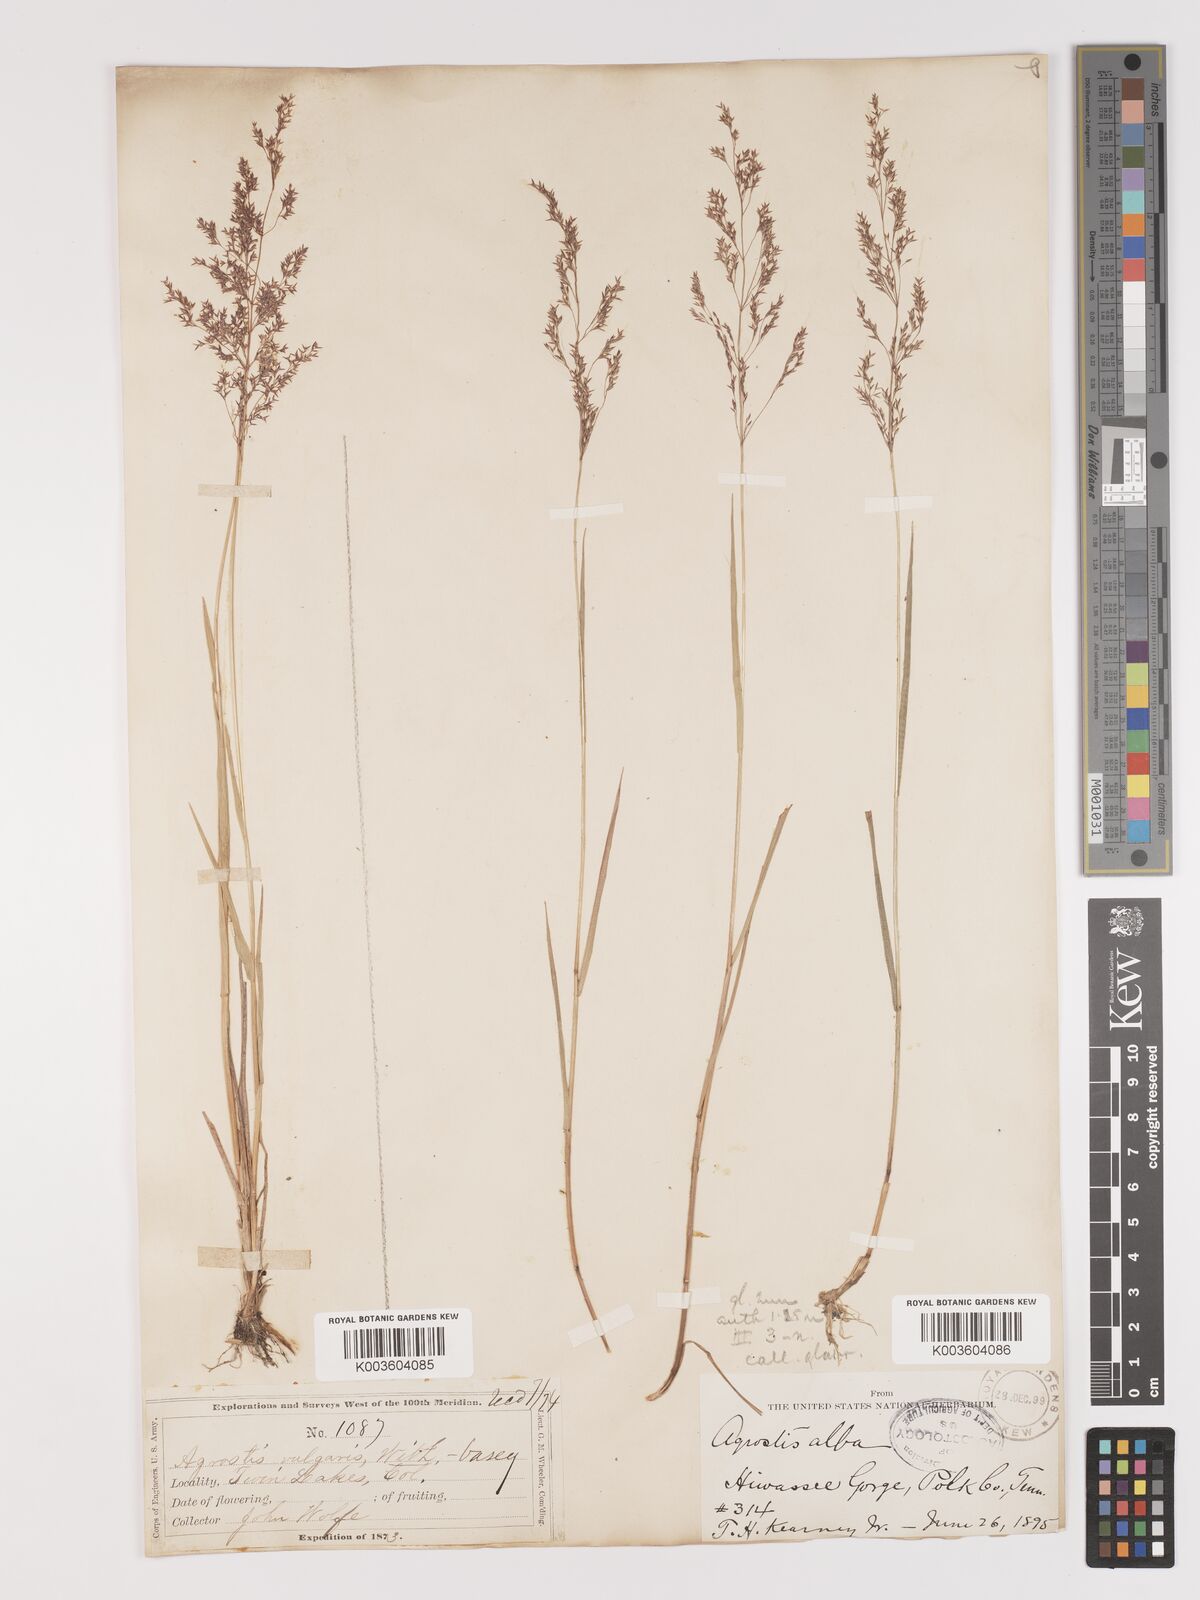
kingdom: Plantae
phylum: Tracheophyta
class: Liliopsida
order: Poales
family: Poaceae
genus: Agrostis
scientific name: Agrostis gigantea
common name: Black bent
